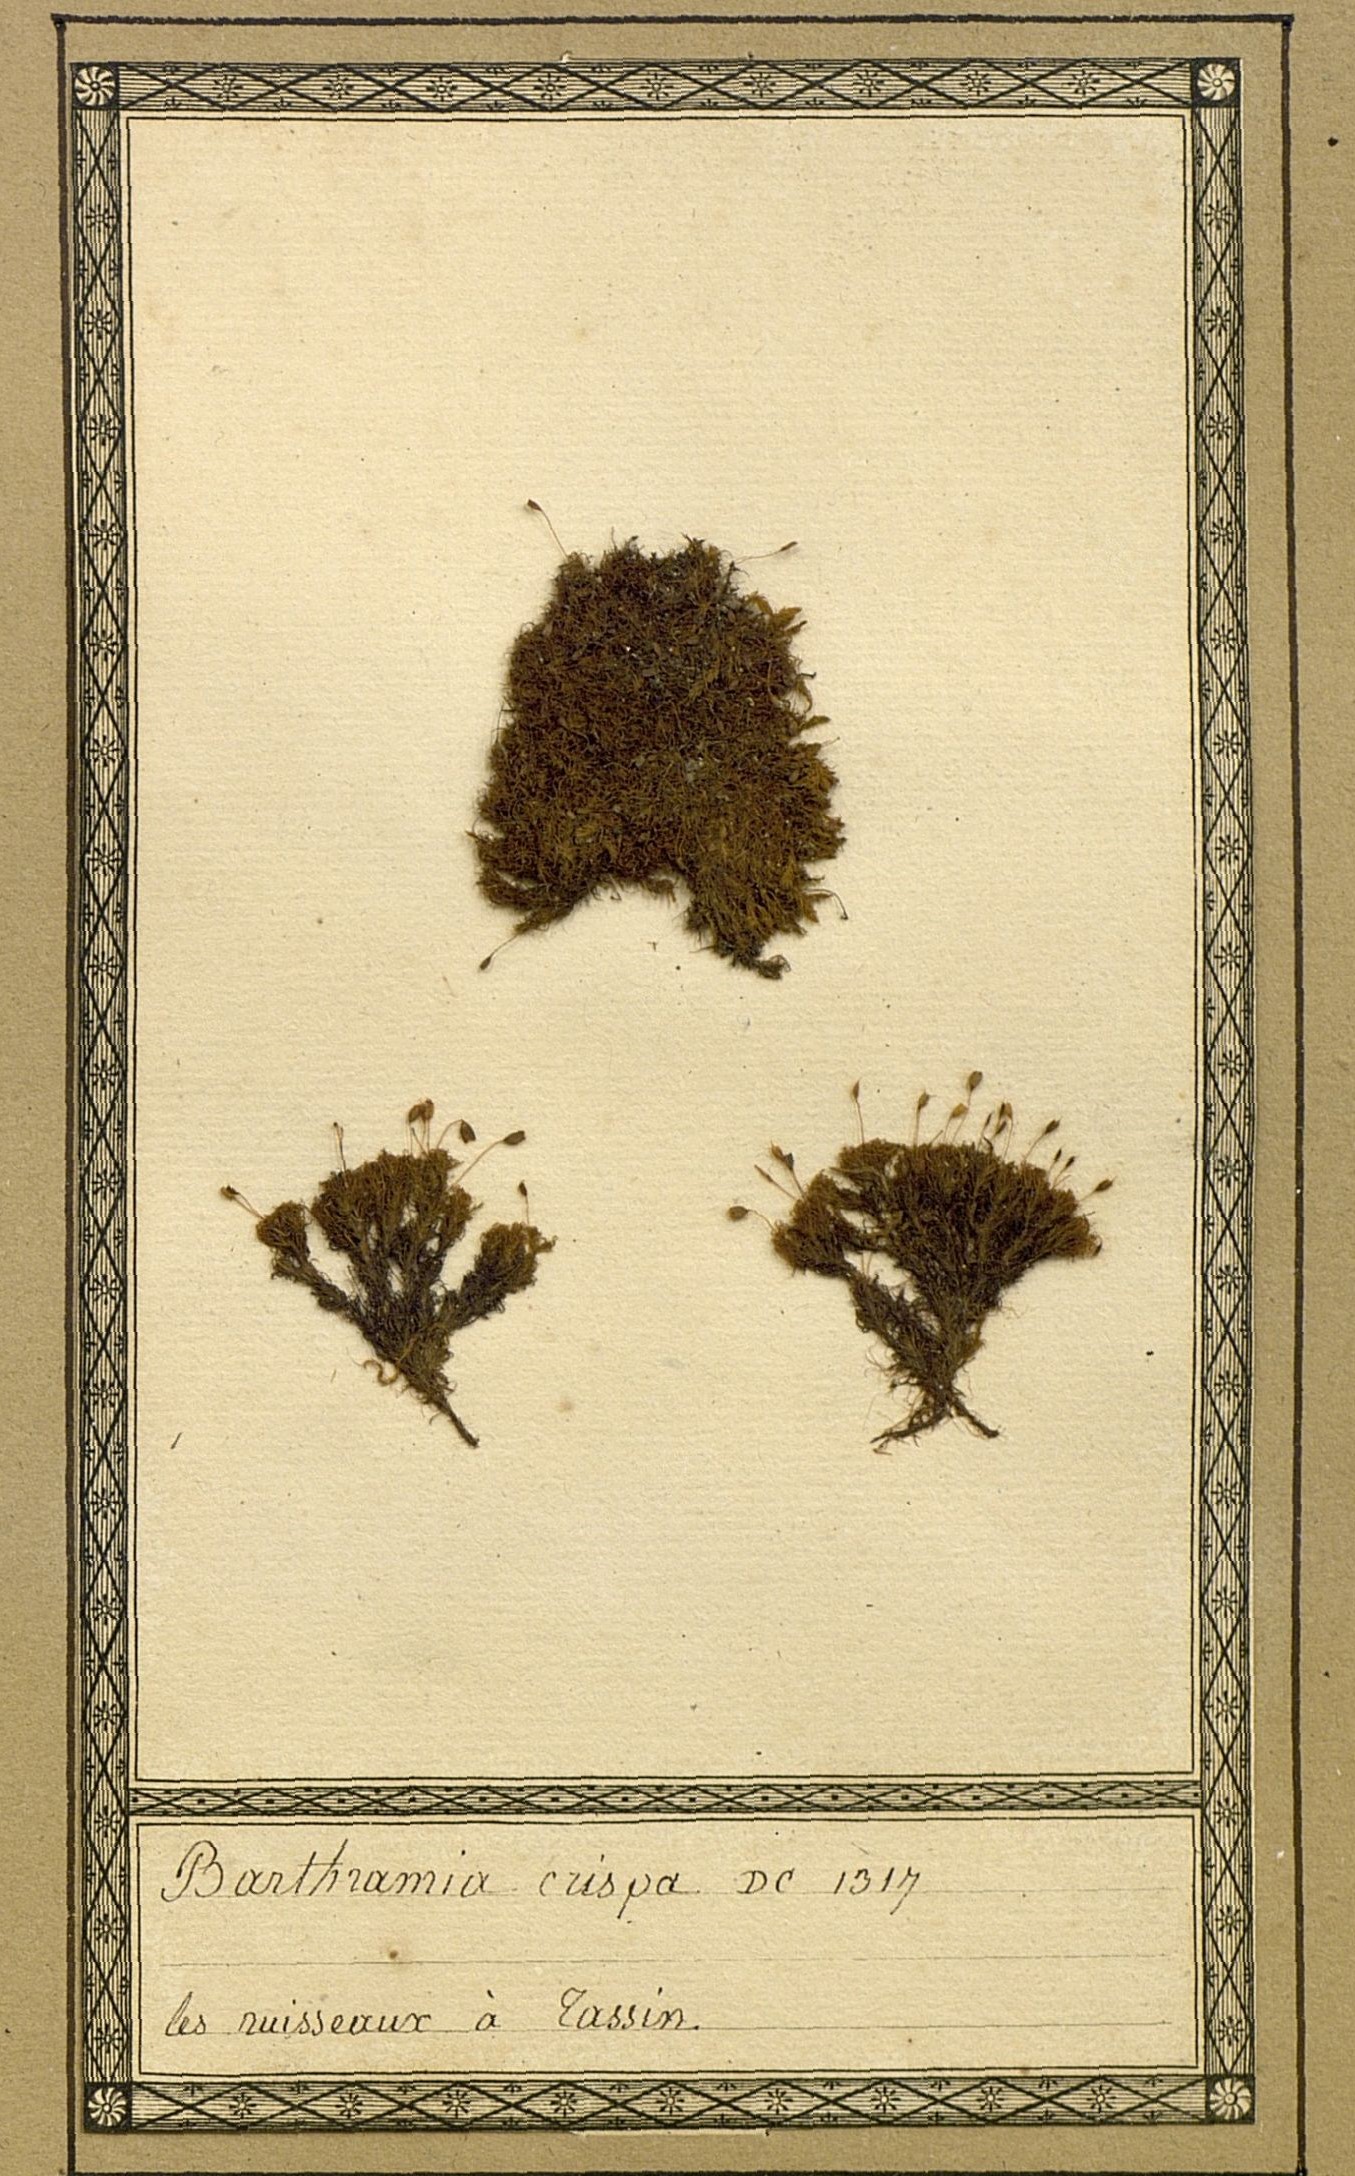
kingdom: Plantae
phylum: Bryophyta
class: Bryopsida
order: Bartramiales
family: Bartramiaceae
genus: Bartramia
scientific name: Bartramia pomiformis
